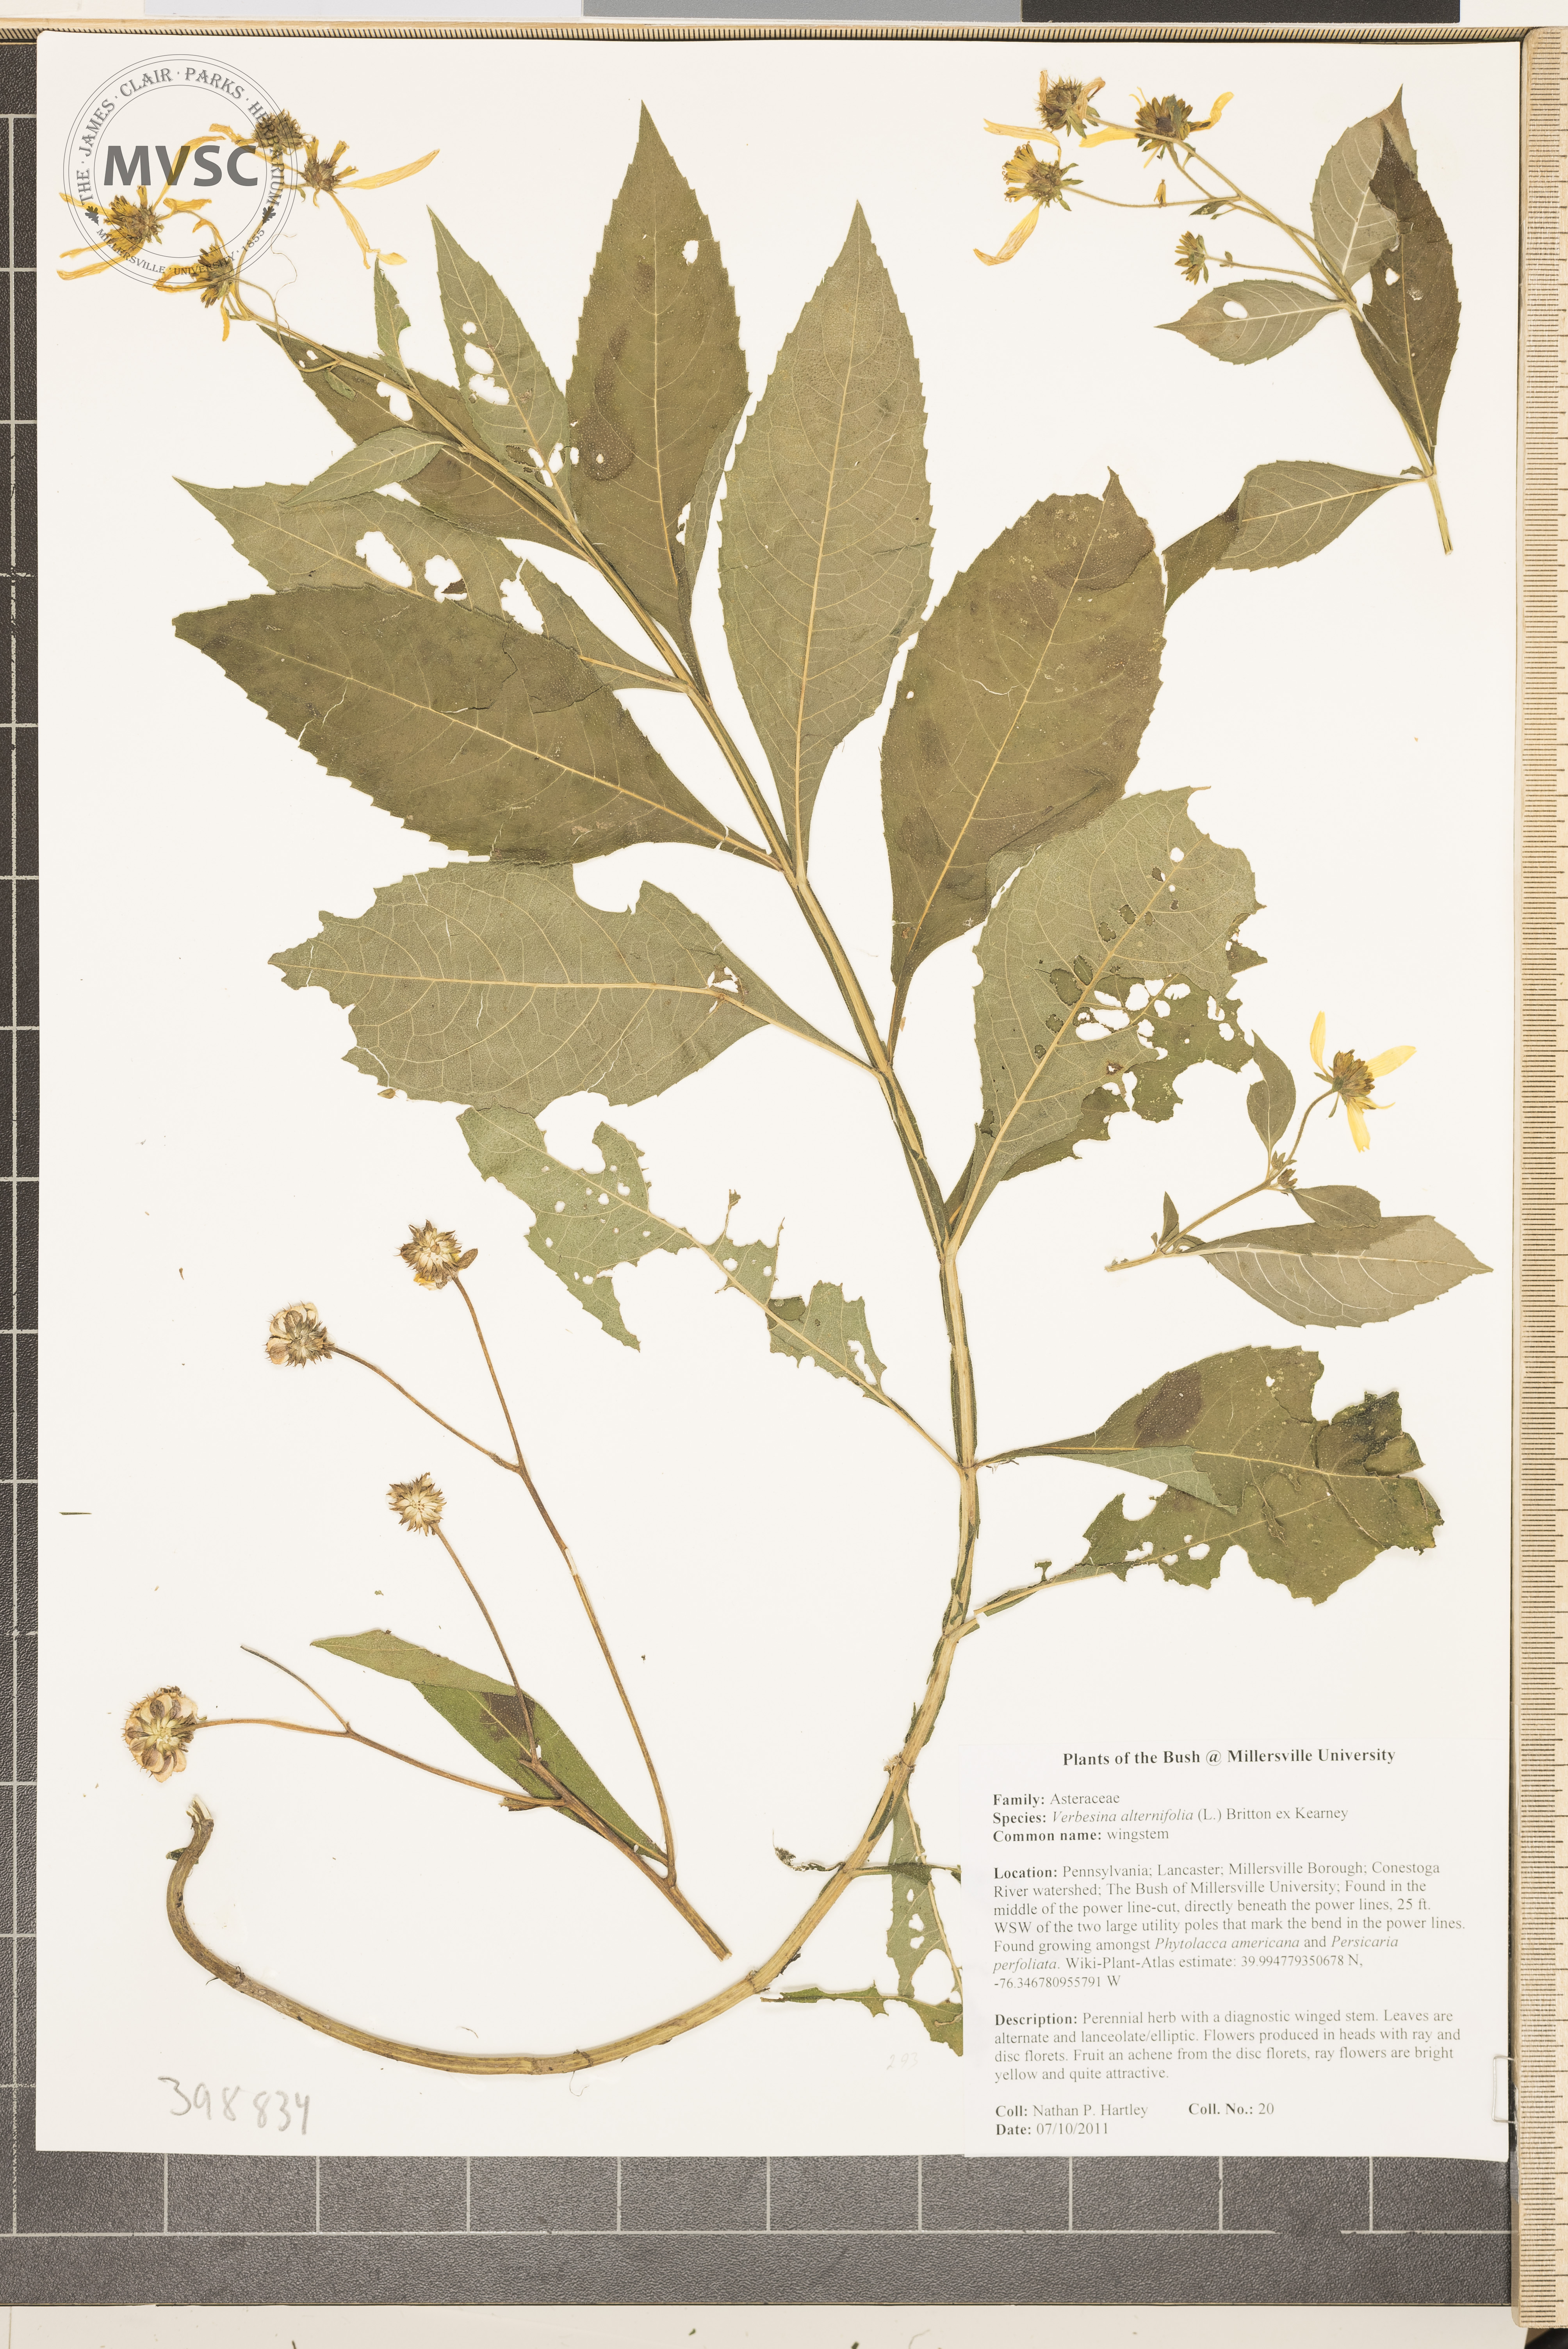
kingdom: Plantae
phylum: Tracheophyta
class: Magnoliopsida
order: Asterales
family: Asteraceae
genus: Verbesina
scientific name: Verbesina alternifolia
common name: Wingstem
